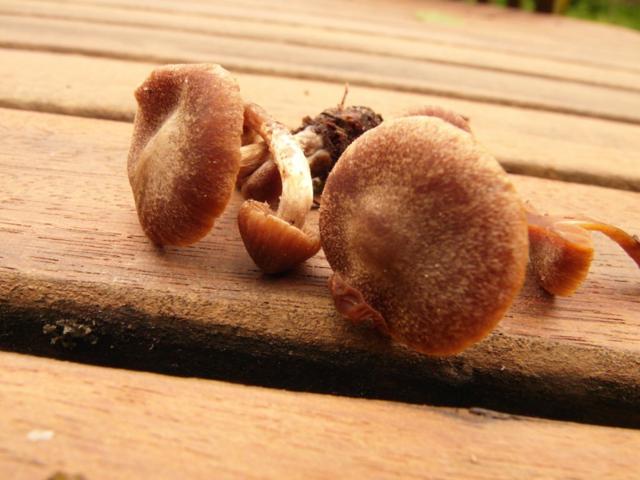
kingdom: Fungi
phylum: Basidiomycota
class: Agaricomycetes
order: Agaricales
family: Cortinariaceae
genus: Cortinarius
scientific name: Cortinarius fusisporus
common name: brunfnugget slørhat
